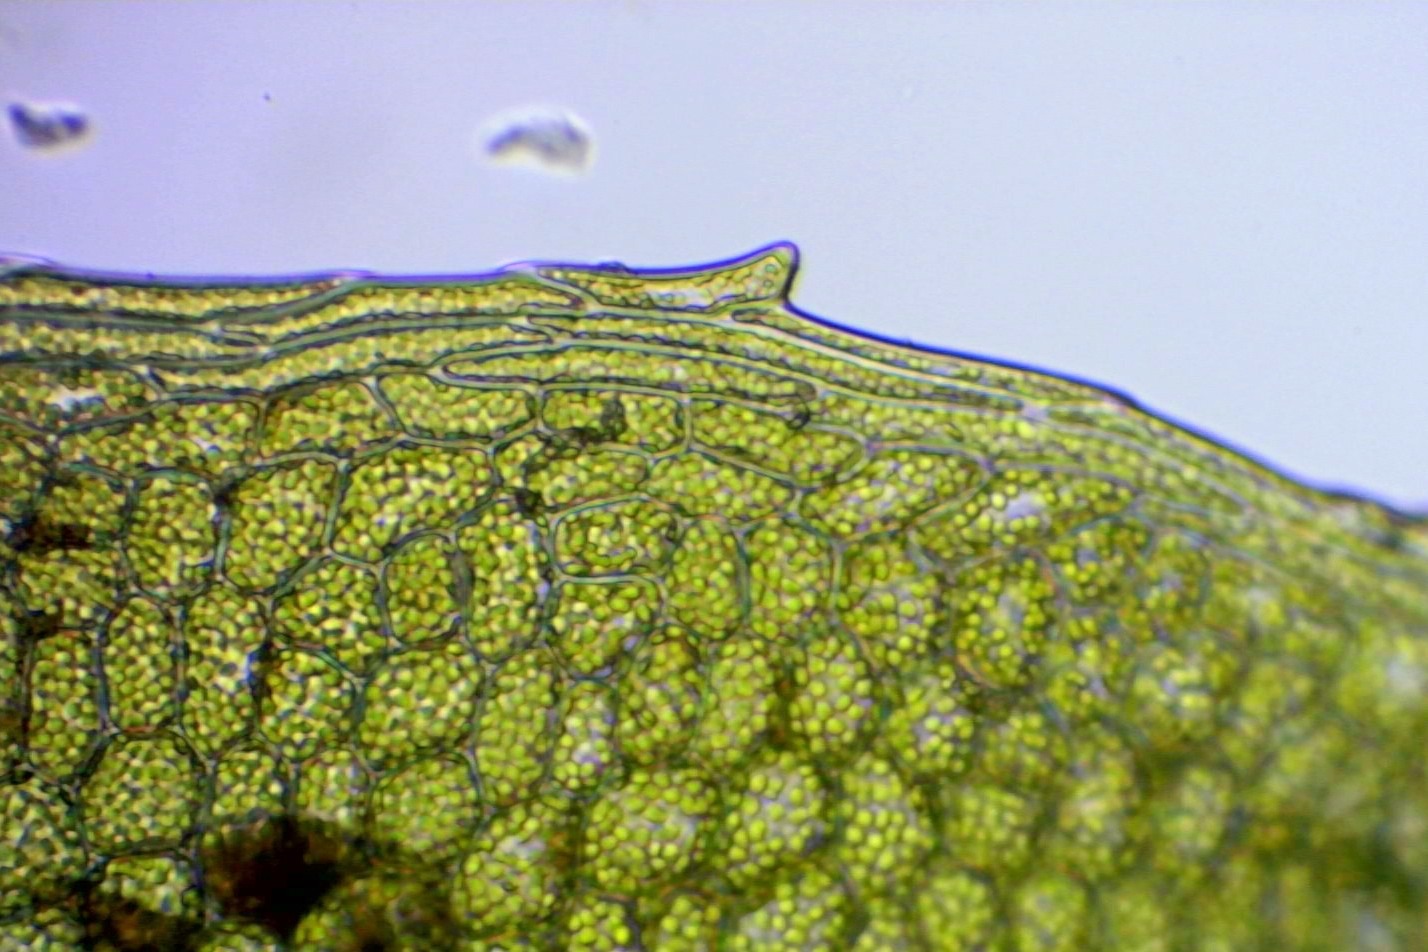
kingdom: Plantae
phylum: Bryophyta
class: Bryopsida
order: Bryales
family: Mniaceae
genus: Plagiomnium
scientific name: Plagiomnium ellipticum
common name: Mose-krybstjerne
